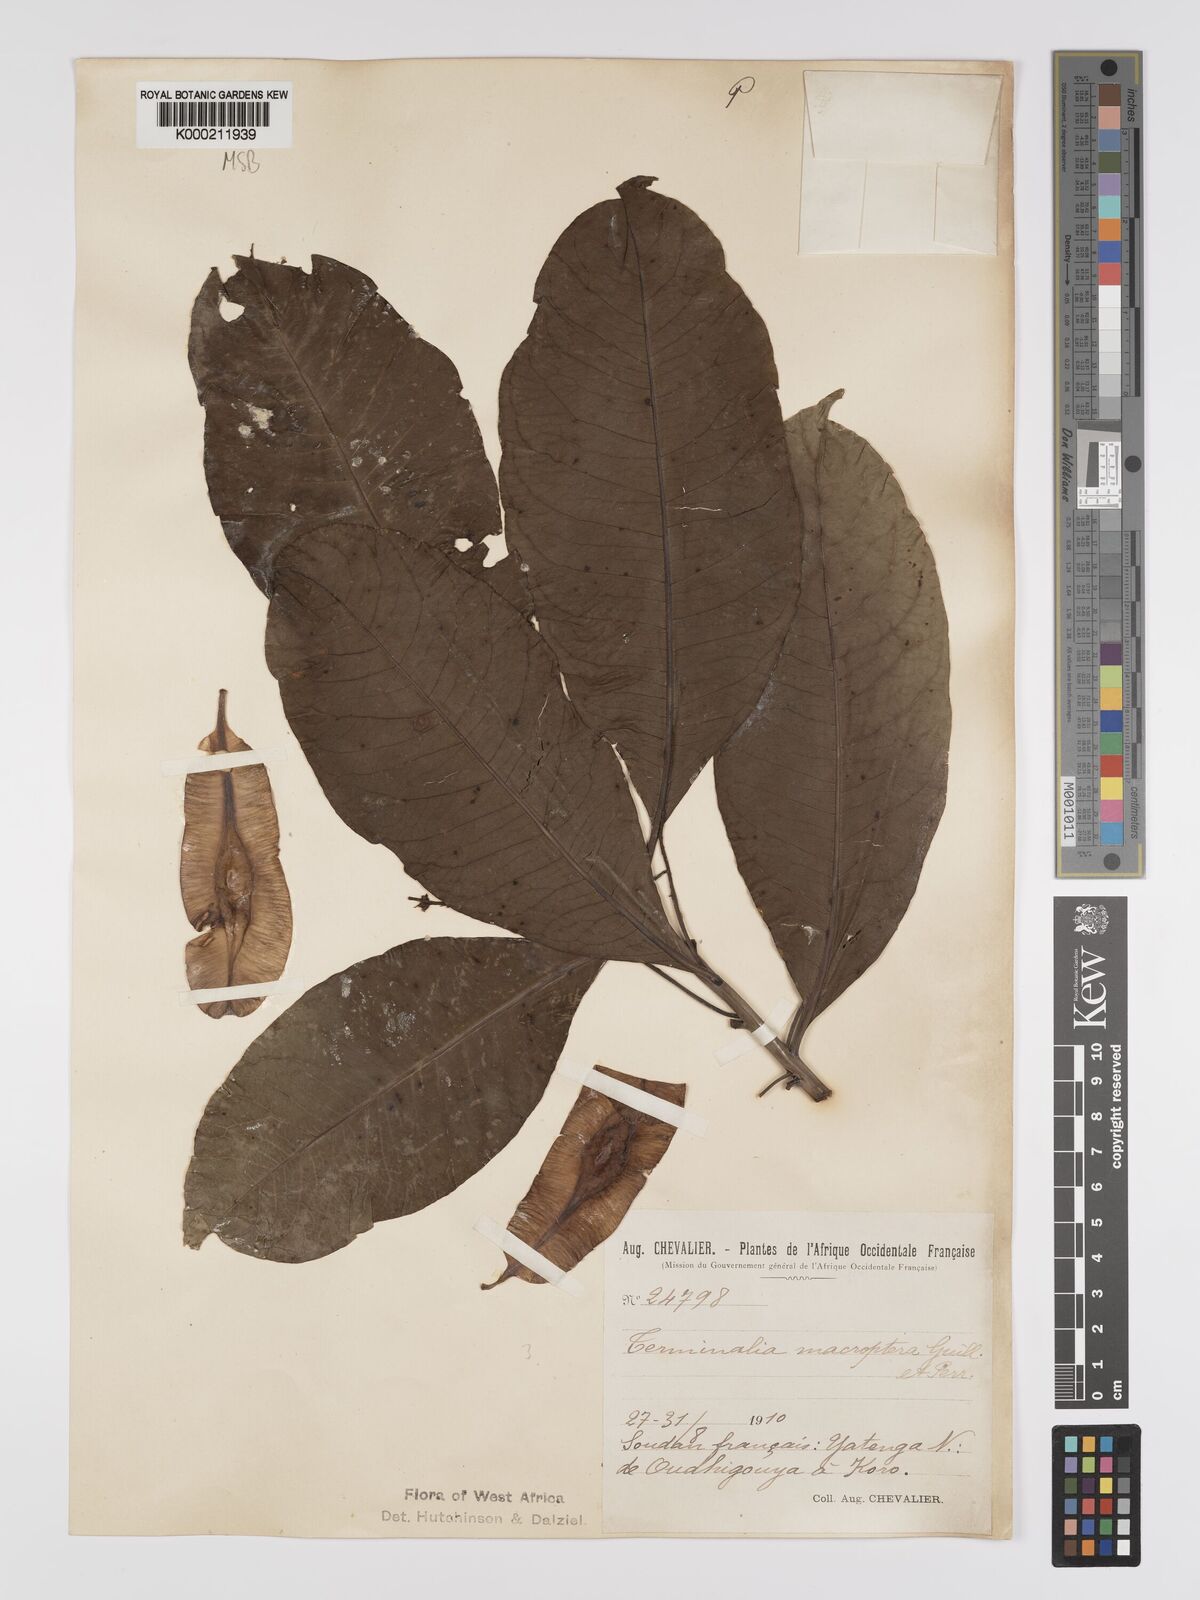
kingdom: Plantae
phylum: Tracheophyta
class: Magnoliopsida
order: Myrtales
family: Combretaceae
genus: Terminalia
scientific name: Terminalia macroptera
